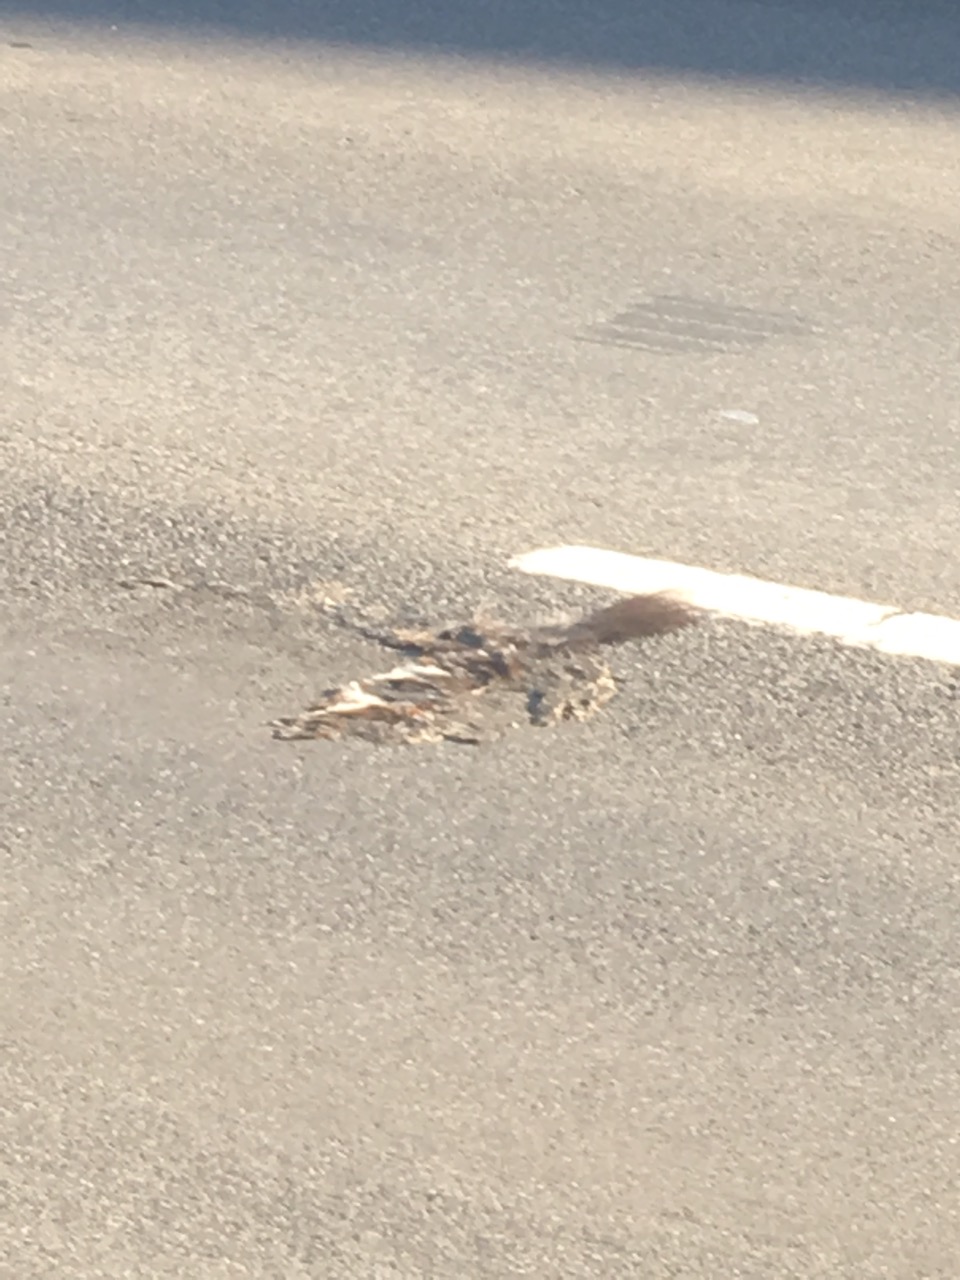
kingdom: Animalia
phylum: Chordata
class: Mammalia
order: Carnivora
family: Mustelidae
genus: Martes
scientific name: Martes foina
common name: Beech marten
